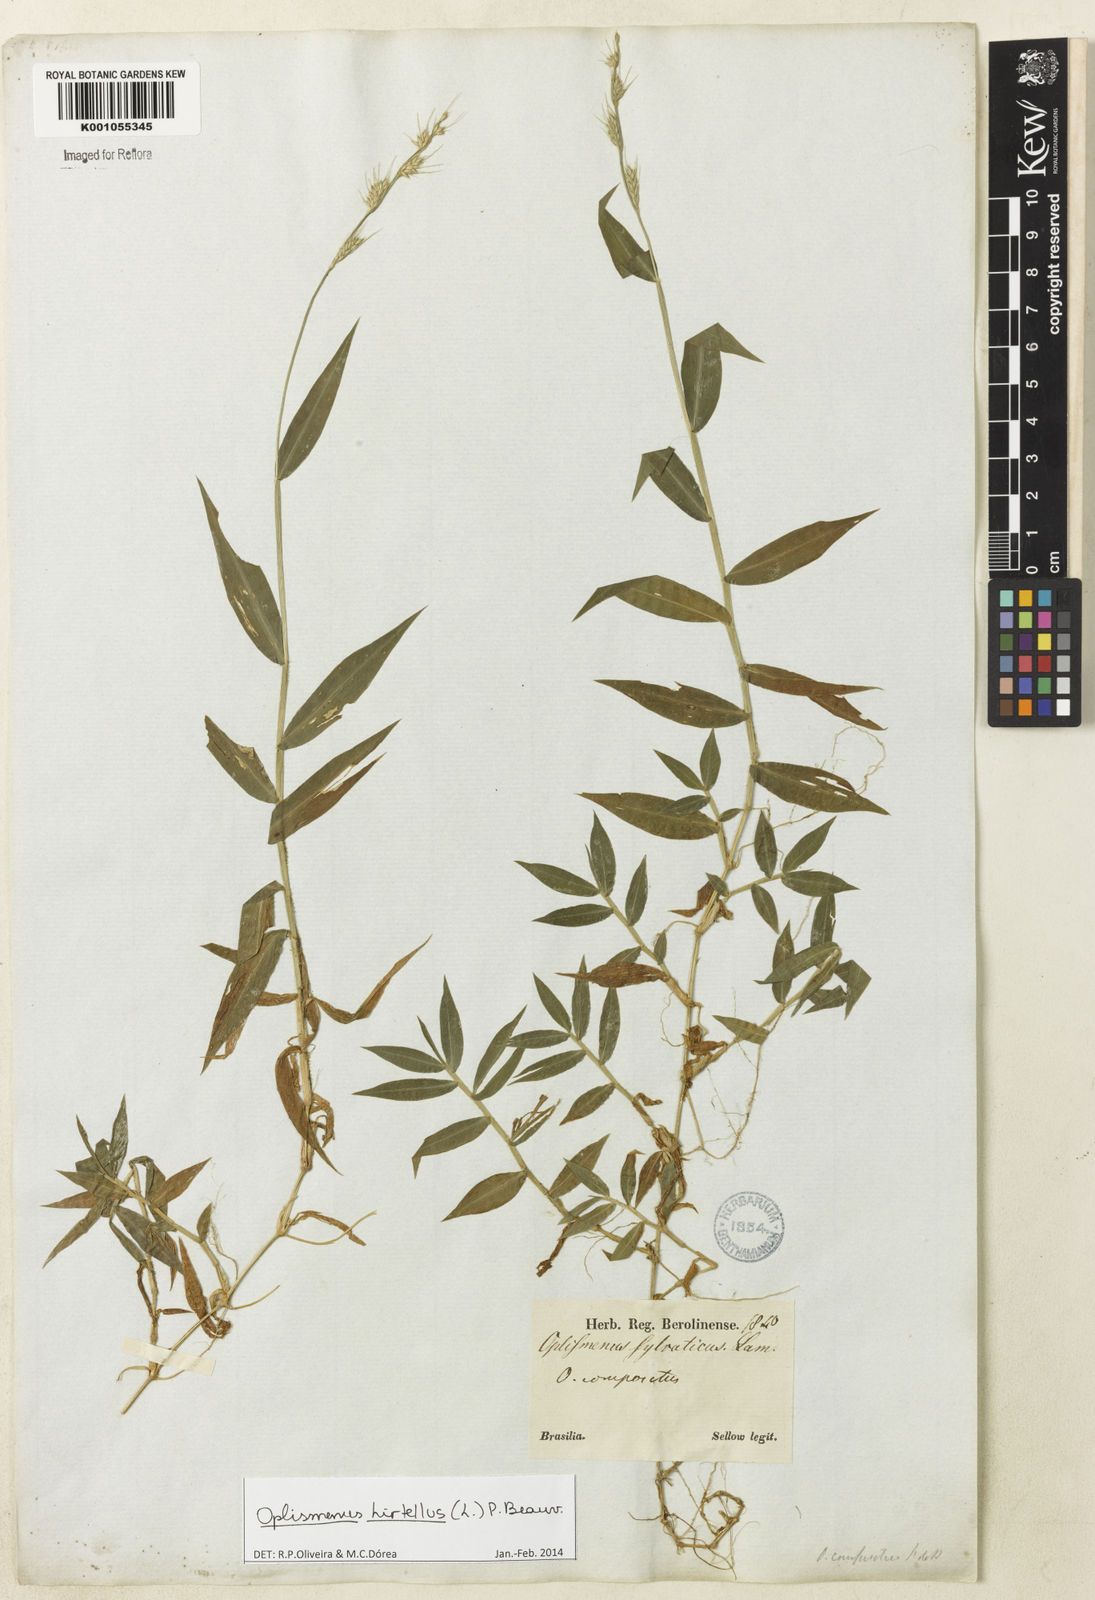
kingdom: Plantae
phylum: Tracheophyta
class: Liliopsida
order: Poales
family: Poaceae
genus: Oplismenus
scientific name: Oplismenus hirtellus
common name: Basketgrass
